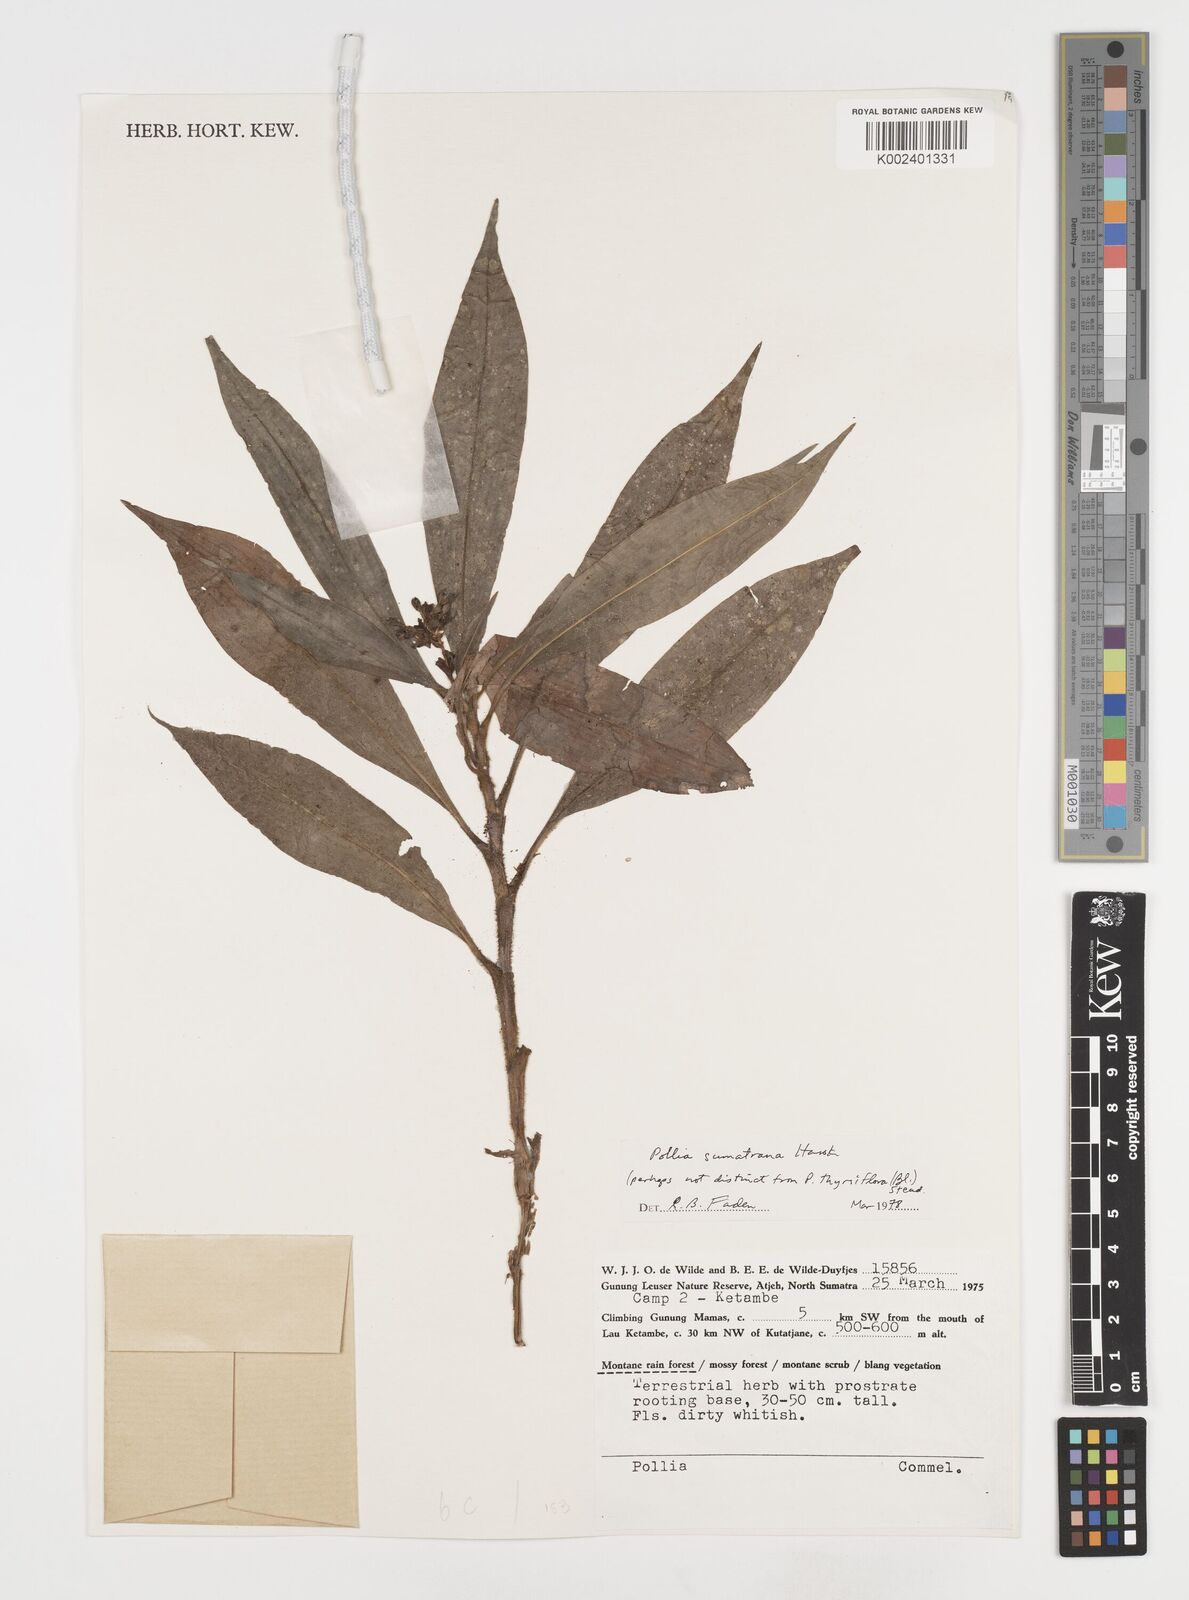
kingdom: Plantae
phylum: Tracheophyta
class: Liliopsida
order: Commelinales
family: Commelinaceae
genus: Pollia
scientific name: Pollia sumatrana
